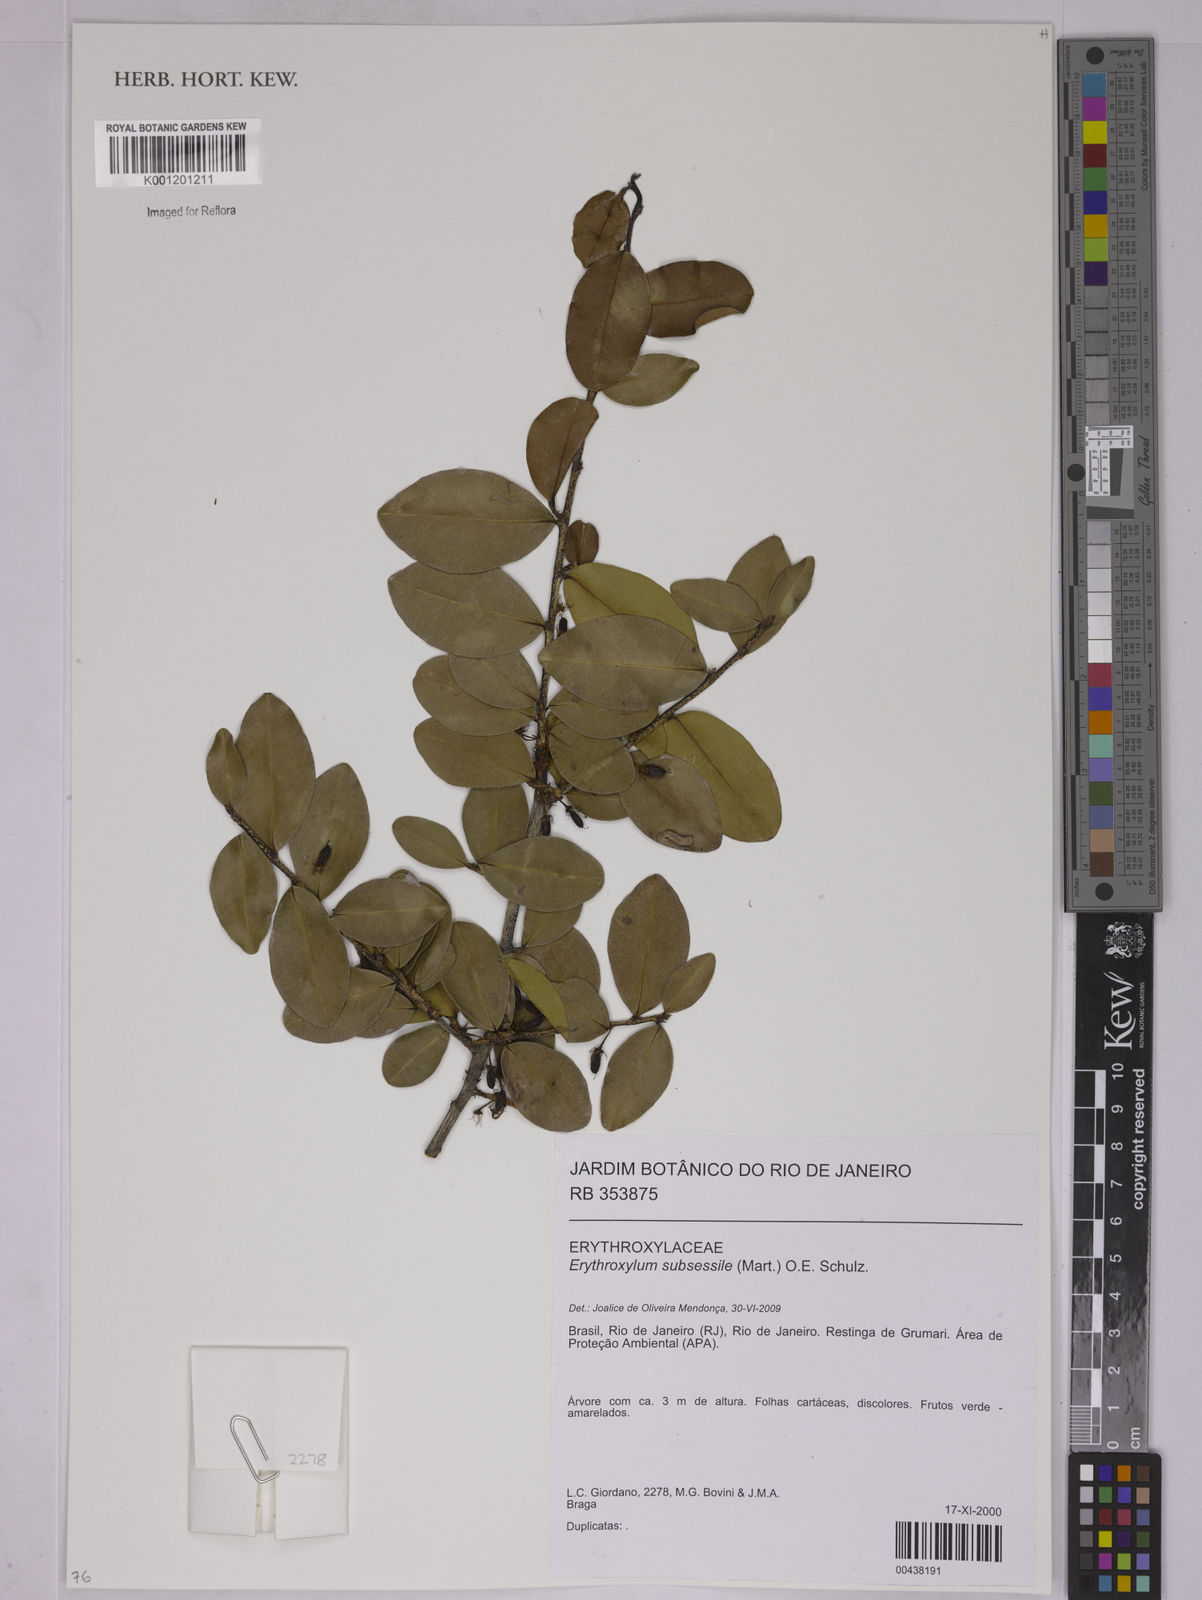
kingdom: Plantae
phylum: Tracheophyta
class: Magnoliopsida
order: Malpighiales
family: Erythroxylaceae
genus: Erythroxylum
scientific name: Erythroxylum macrocalyx
